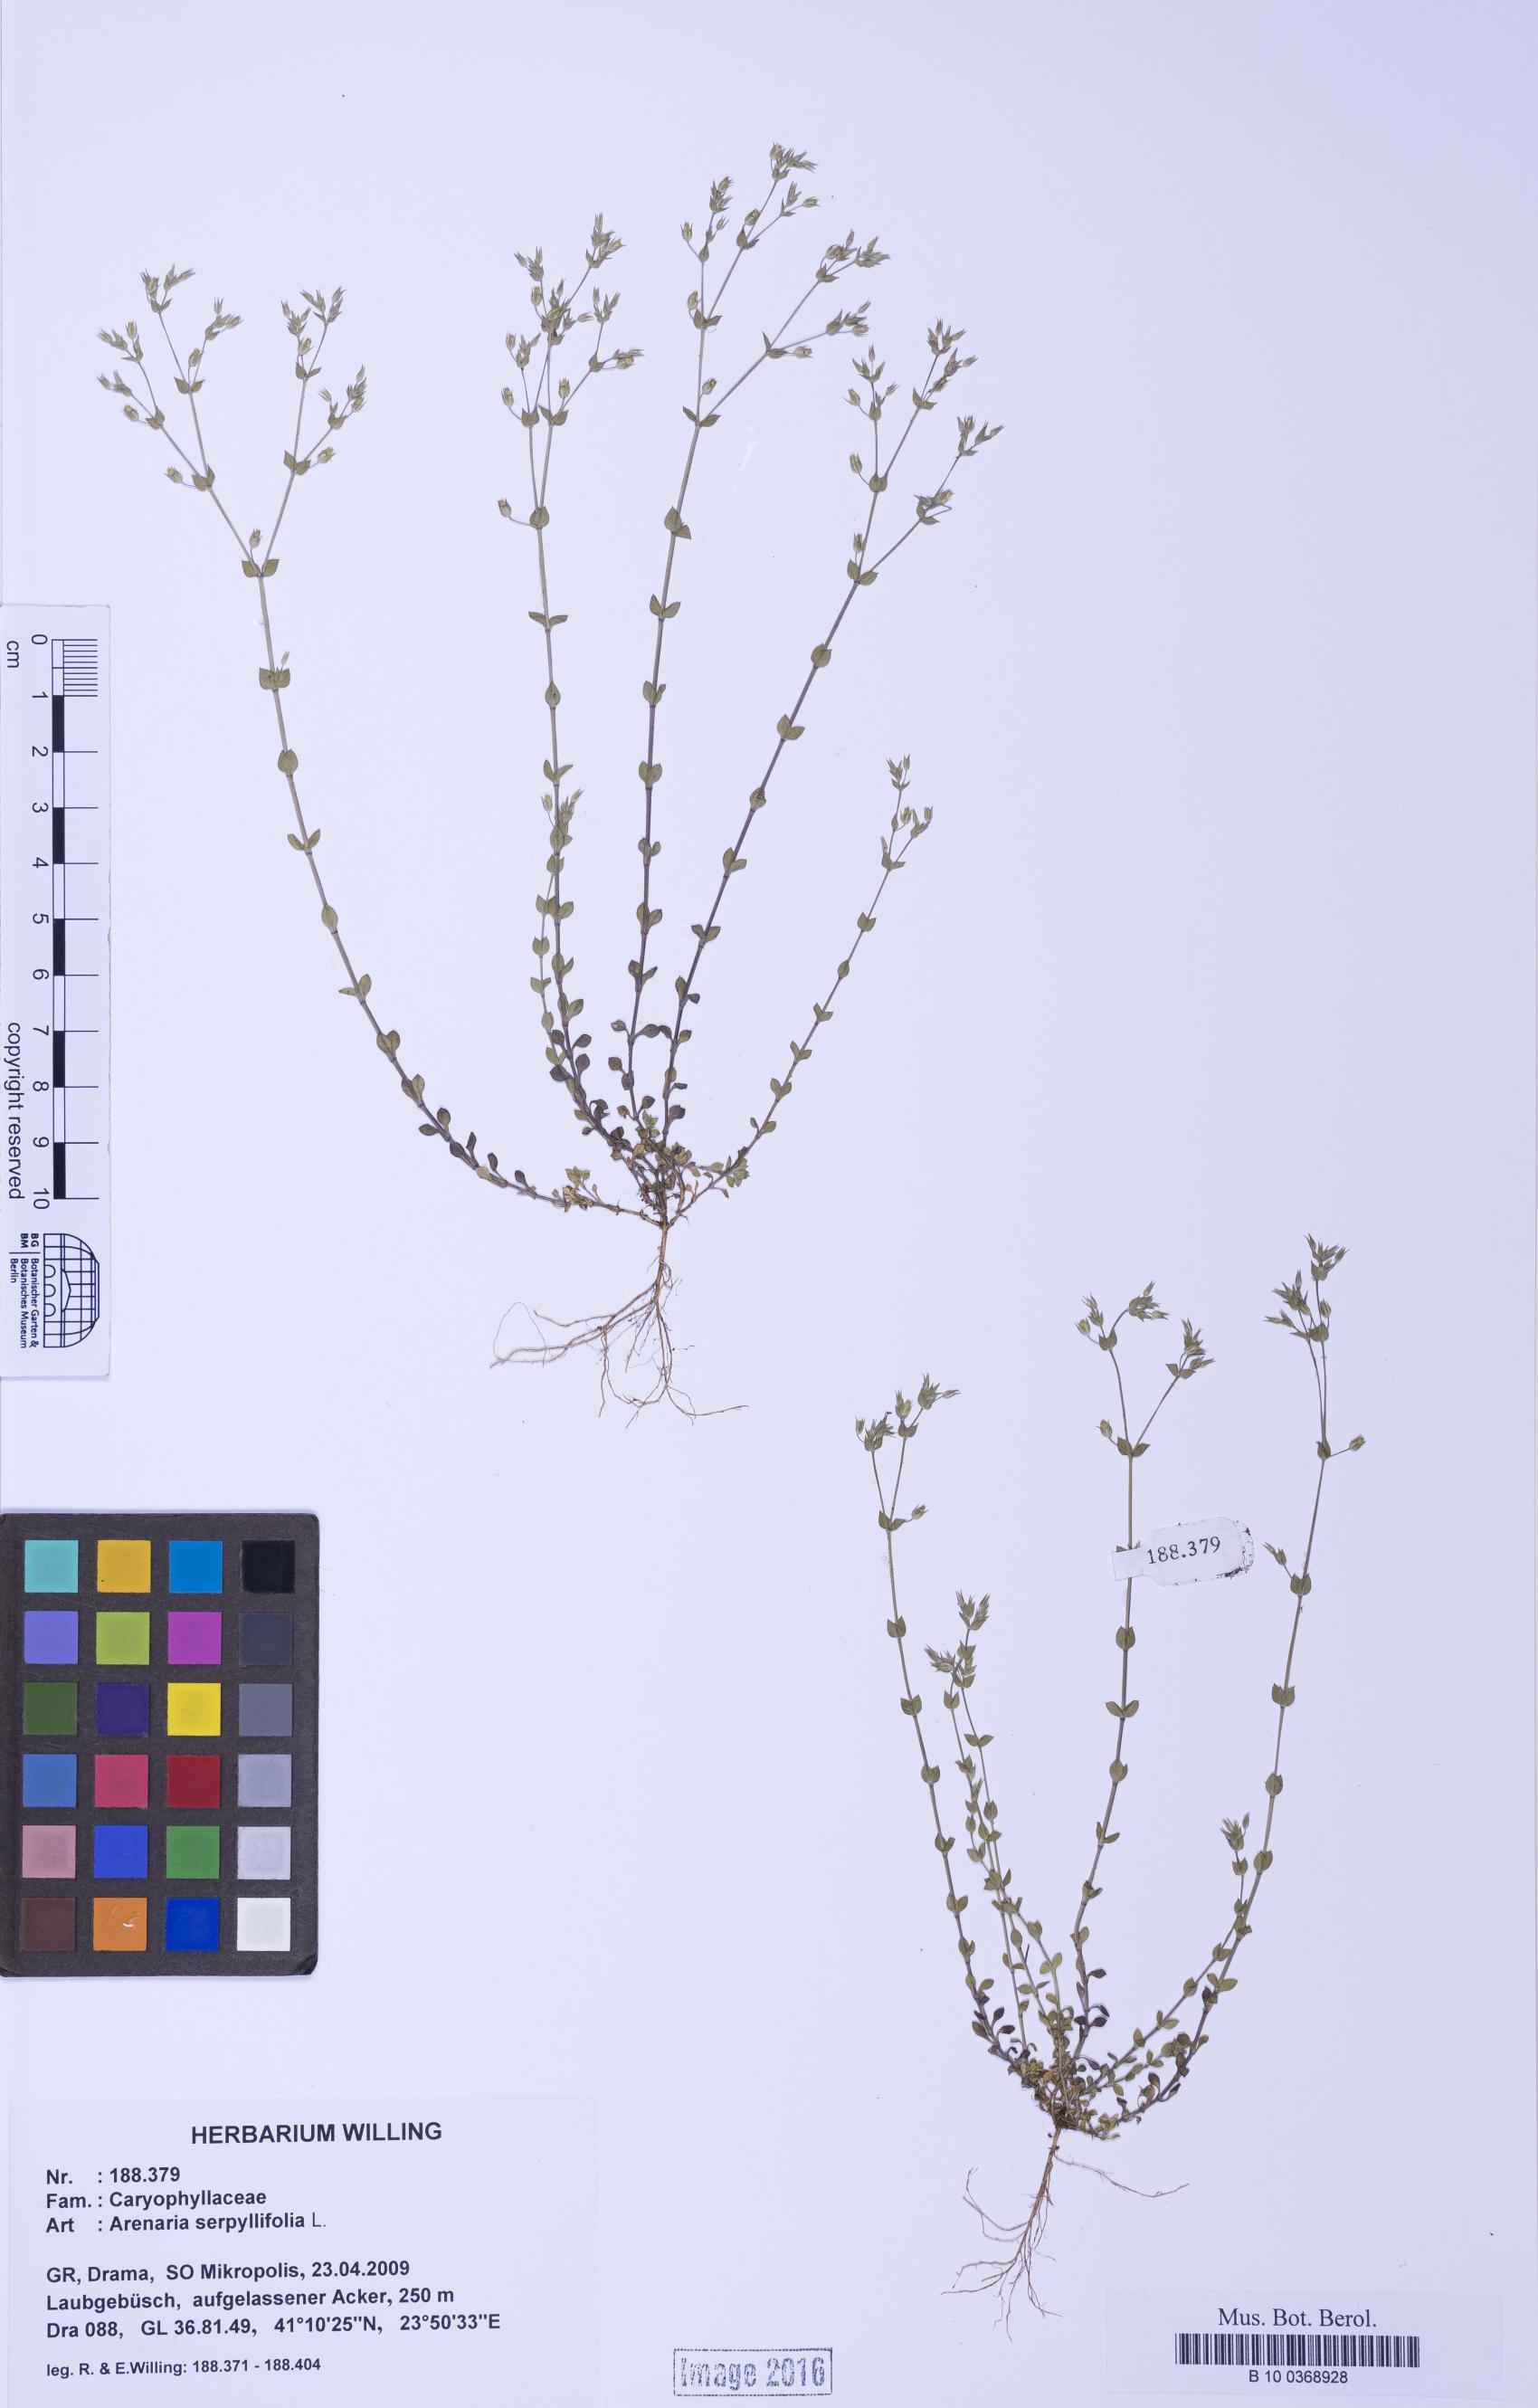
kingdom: Plantae
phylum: Tracheophyta
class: Magnoliopsida
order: Caryophyllales
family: Caryophyllaceae
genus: Arenaria
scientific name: Arenaria serpyllifolia
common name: Thyme-leaved sandwort
